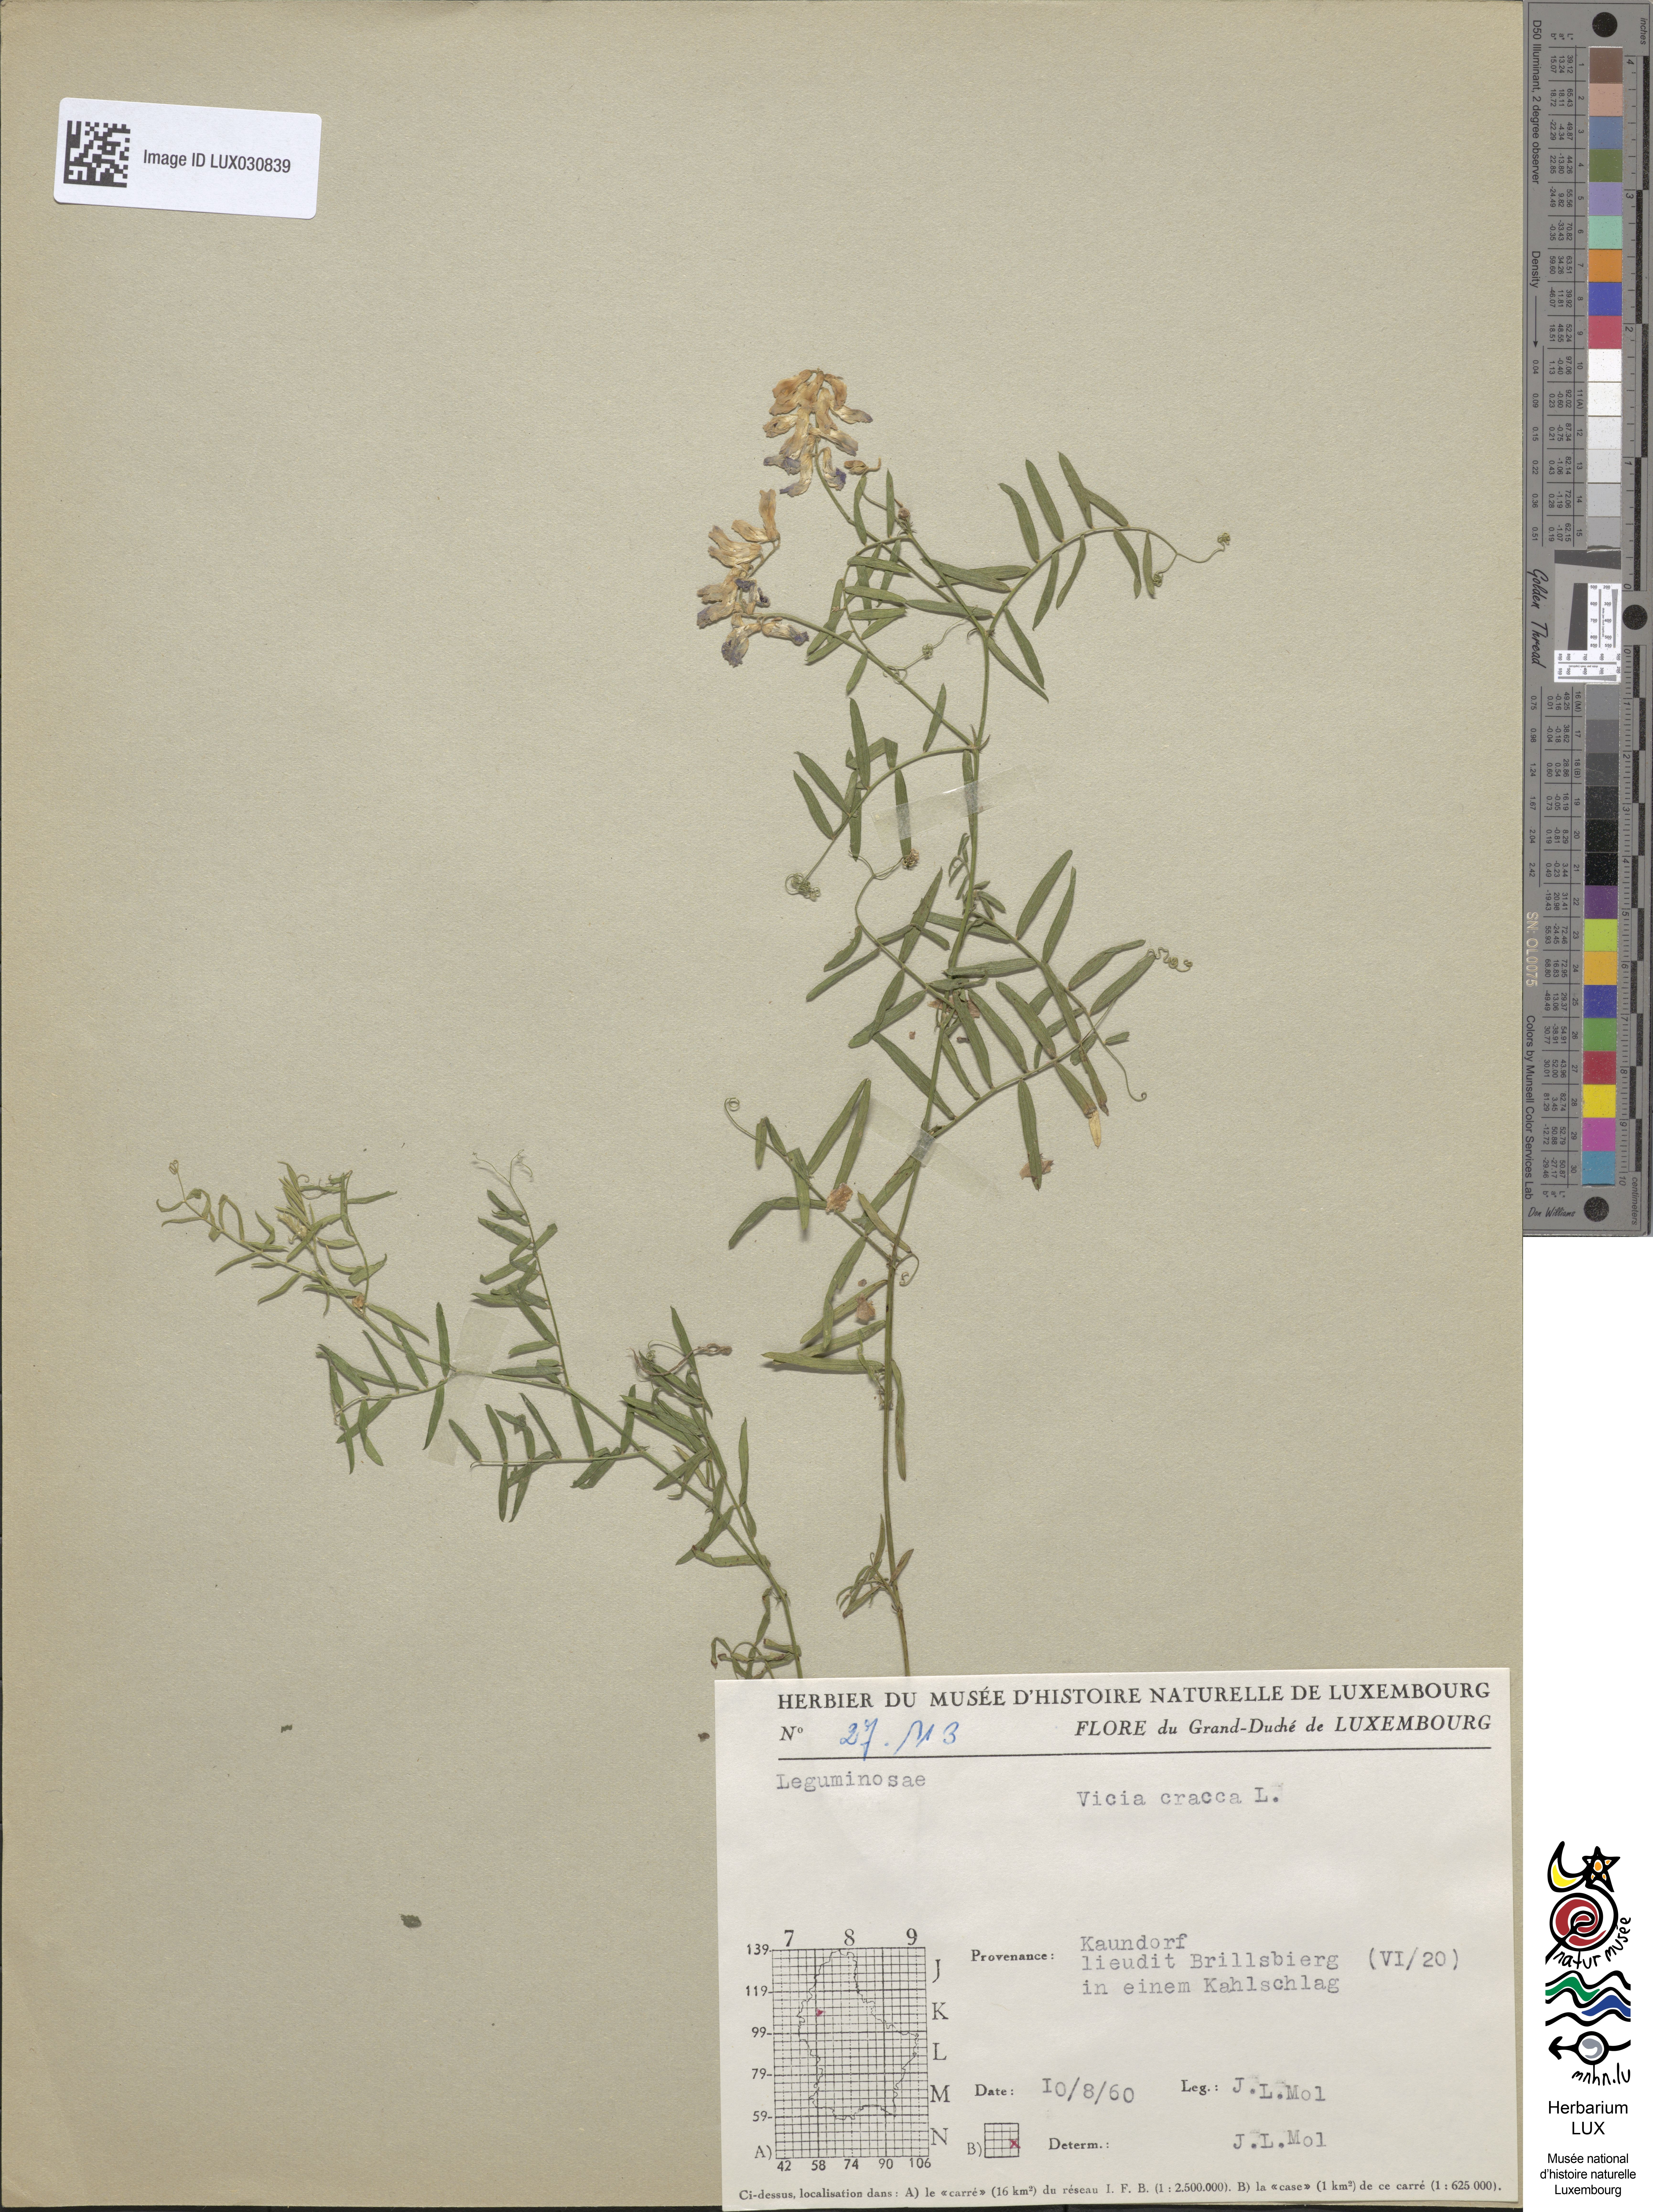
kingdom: Plantae
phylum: Tracheophyta
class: Magnoliopsida
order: Fabales
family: Fabaceae
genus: Vicia
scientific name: Vicia cracca
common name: Bird vetch
